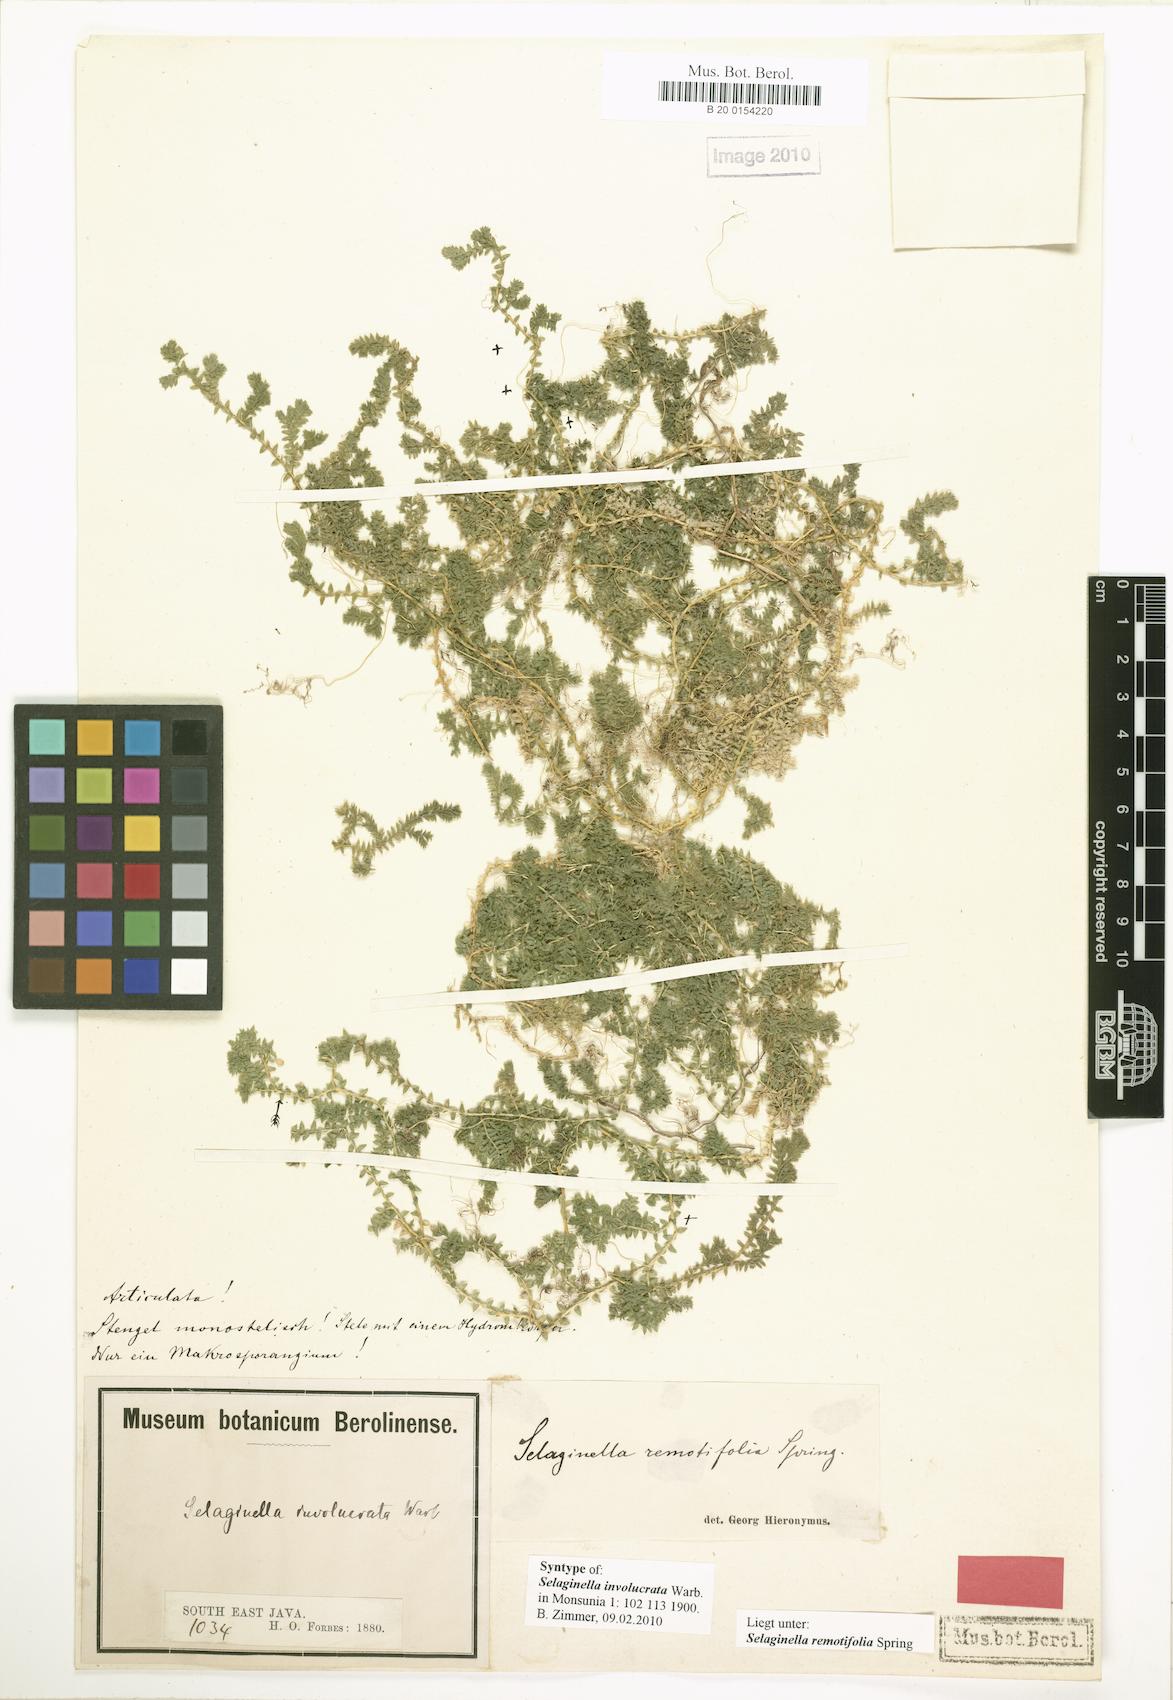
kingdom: Plantae
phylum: Tracheophyta
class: Lycopodiopsida
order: Selaginellales
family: Selaginellaceae
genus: Selaginella
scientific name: Selaginella remotifolia
